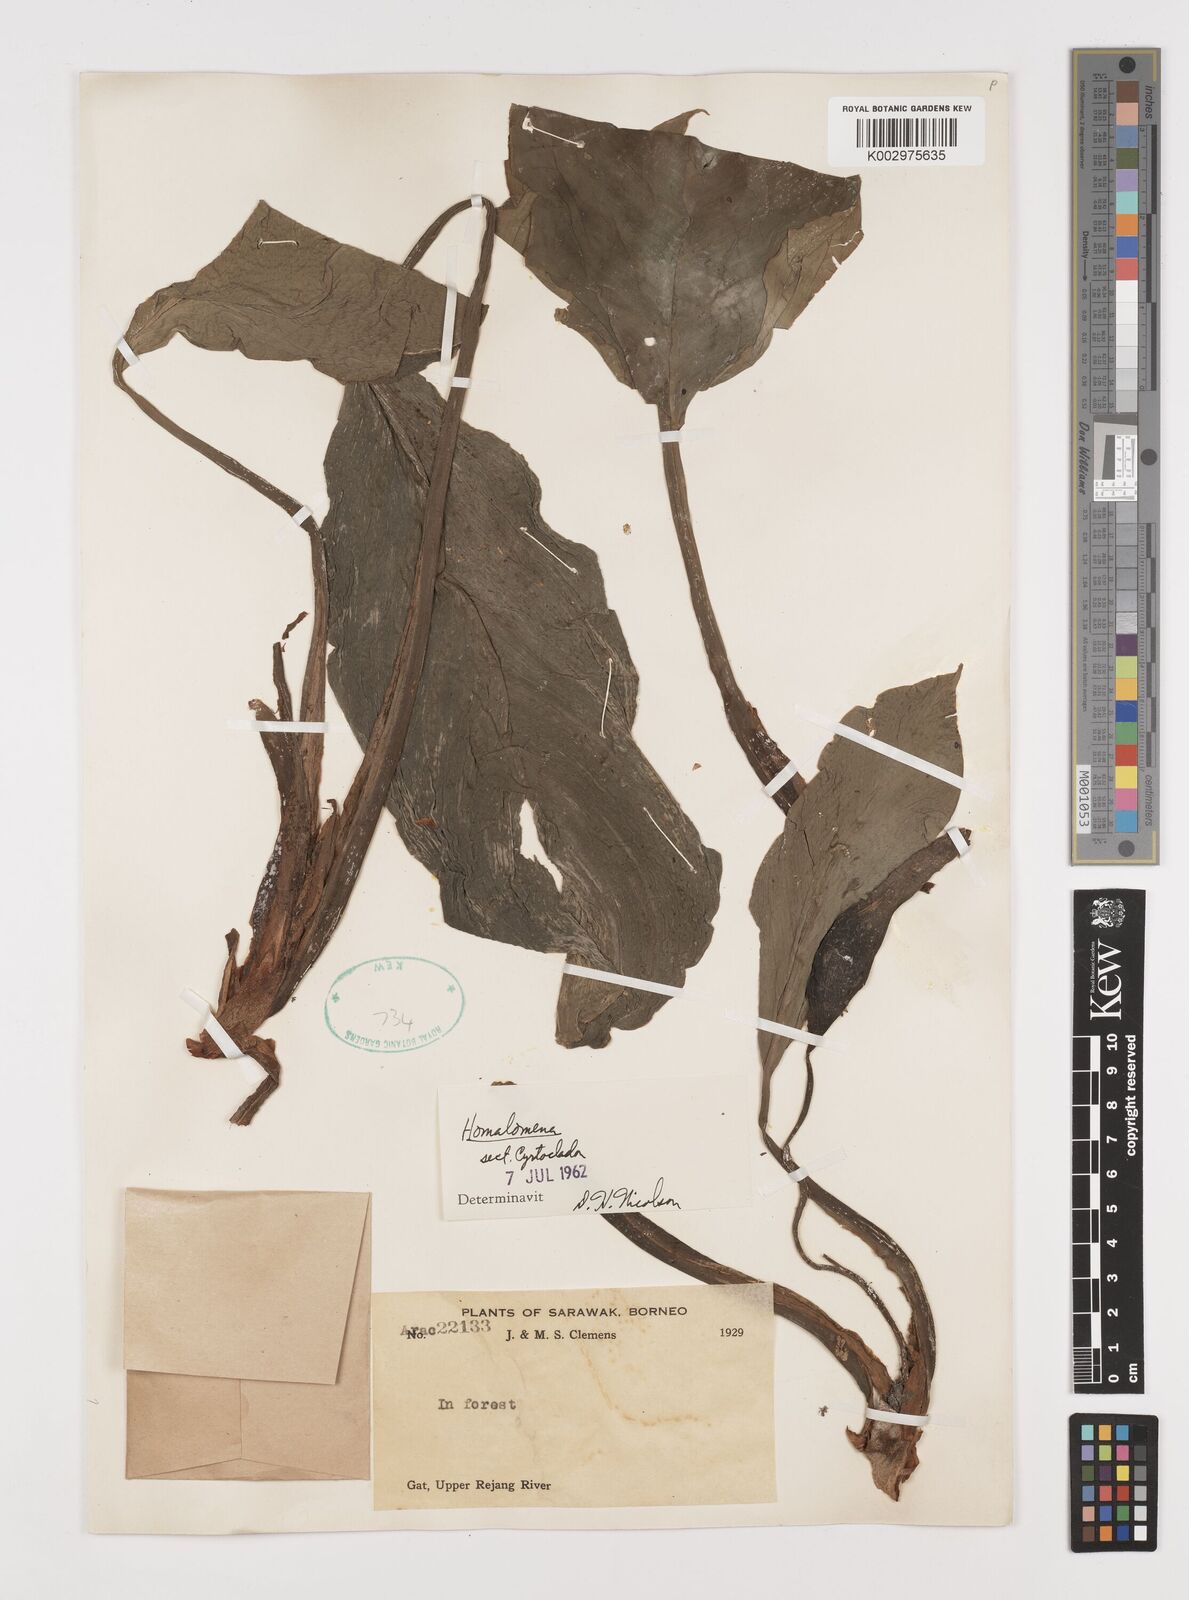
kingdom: Plantae
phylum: Tracheophyta
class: Liliopsida
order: Alismatales
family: Araceae
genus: Homalomena
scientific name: Homalomena
